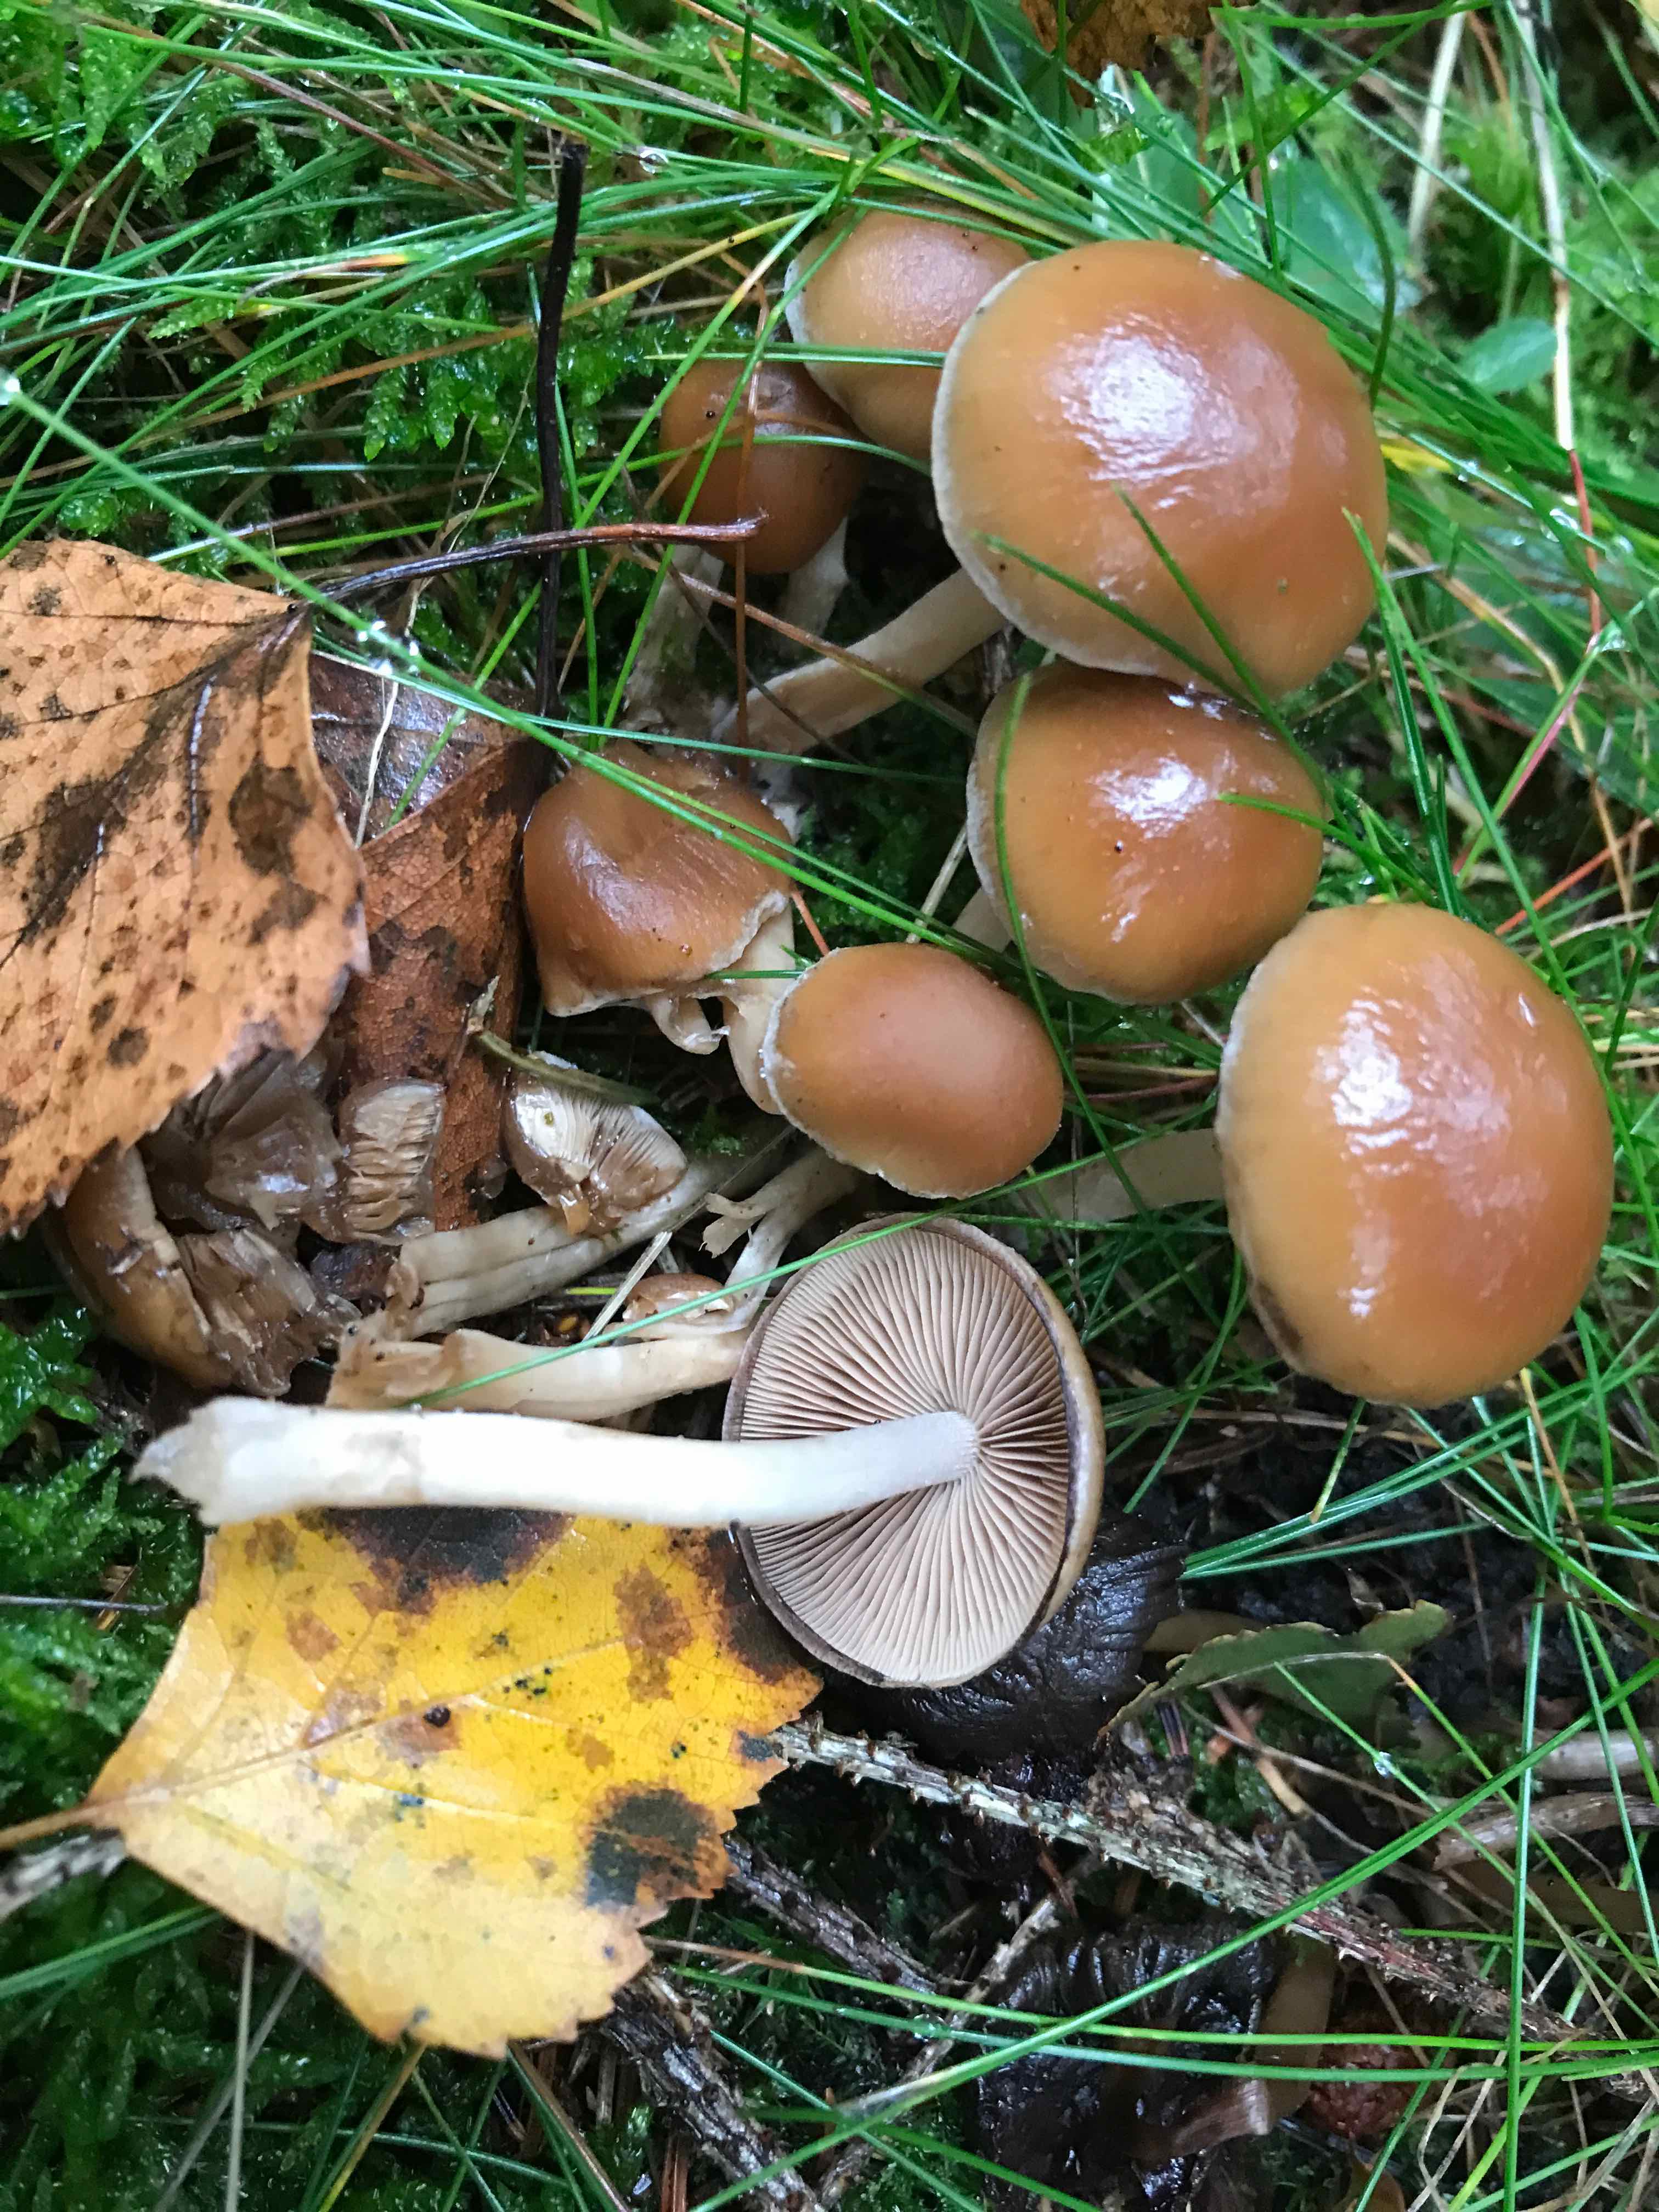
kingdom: Fungi
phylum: Basidiomycota
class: Agaricomycetes
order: Agaricales
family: Strophariaceae
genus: Hypholoma
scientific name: Hypholoma marginatum
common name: enlig svovlhat
